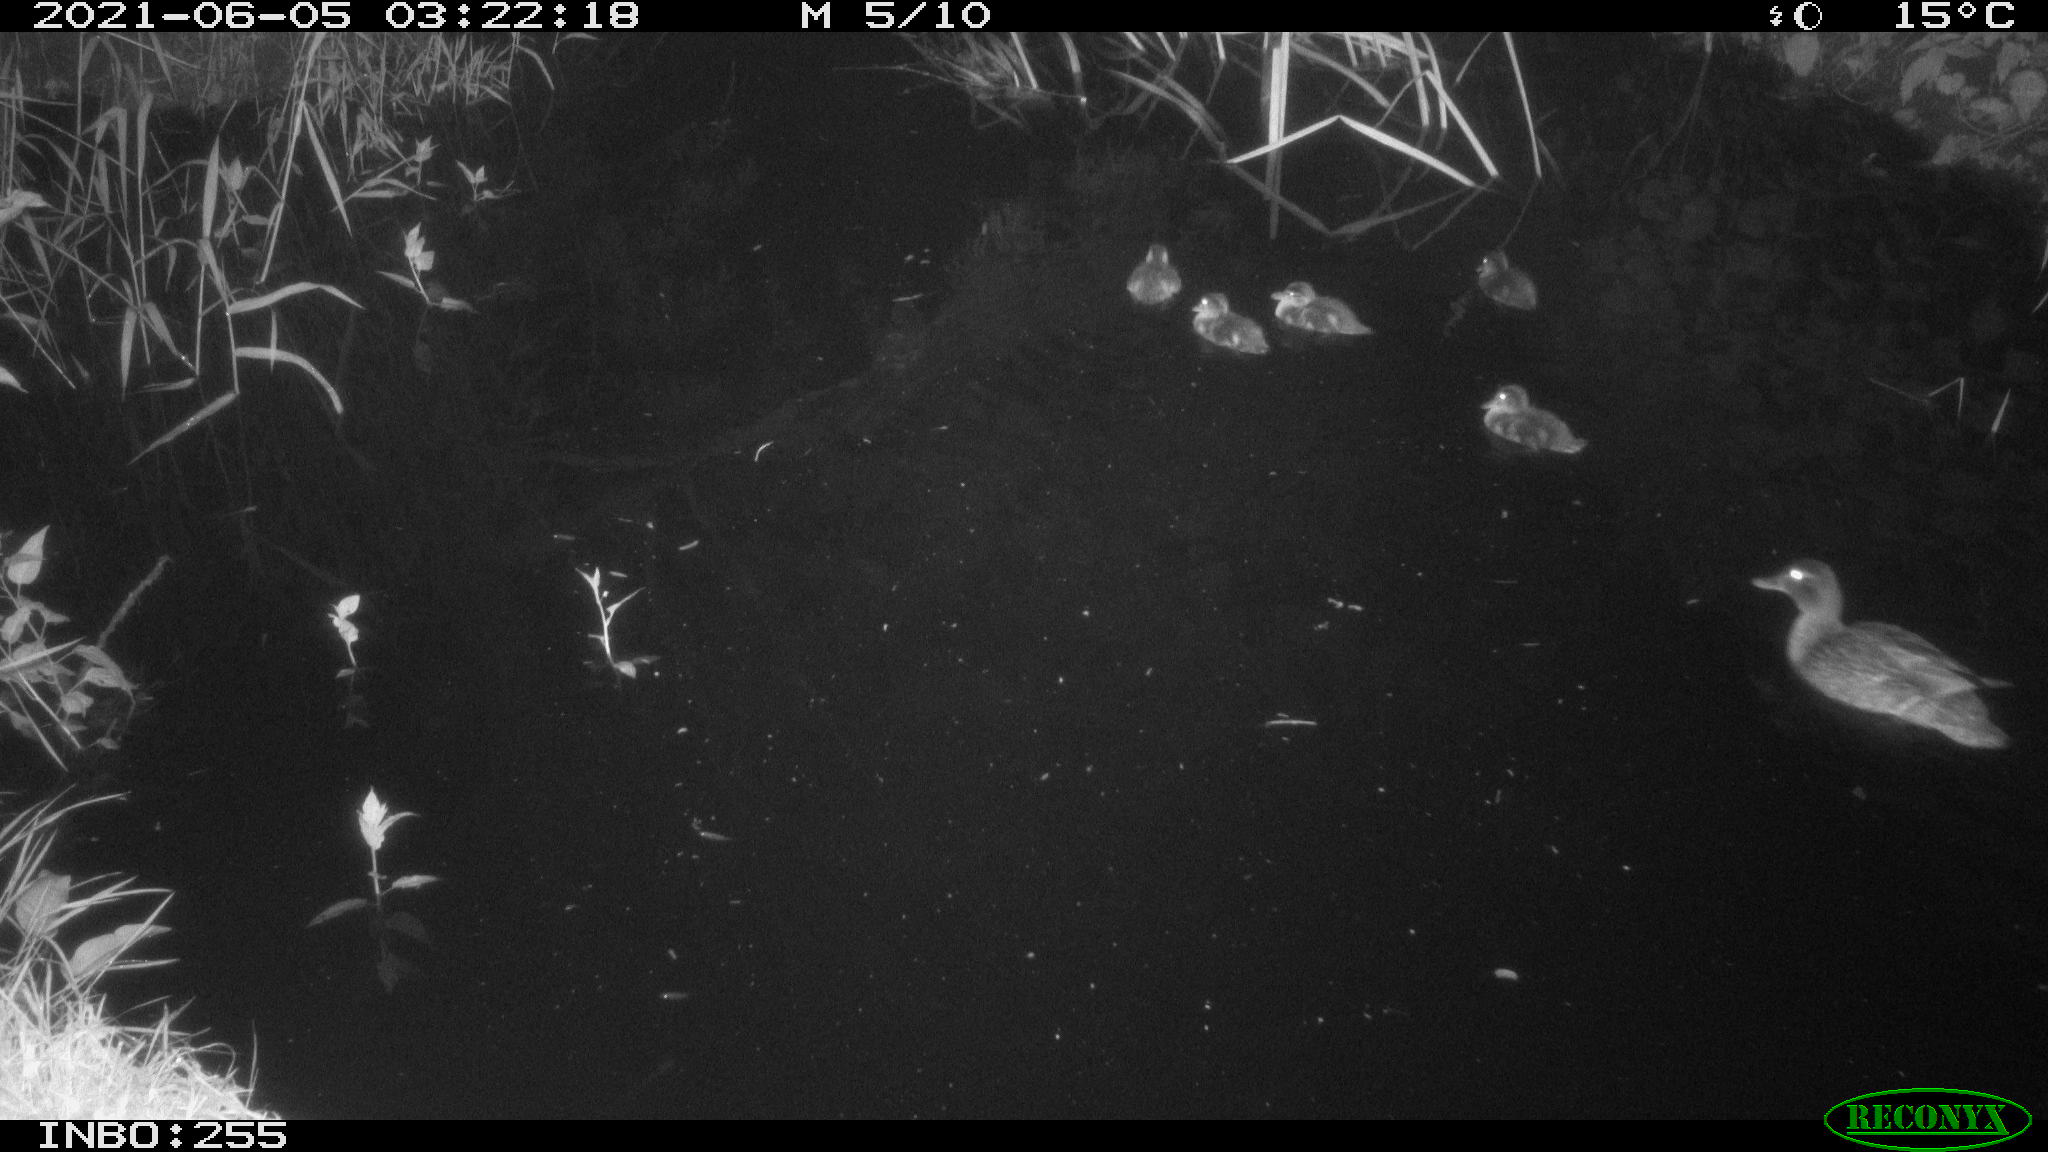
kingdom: Animalia
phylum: Chordata
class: Aves
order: Anseriformes
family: Anatidae
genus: Anas
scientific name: Anas
